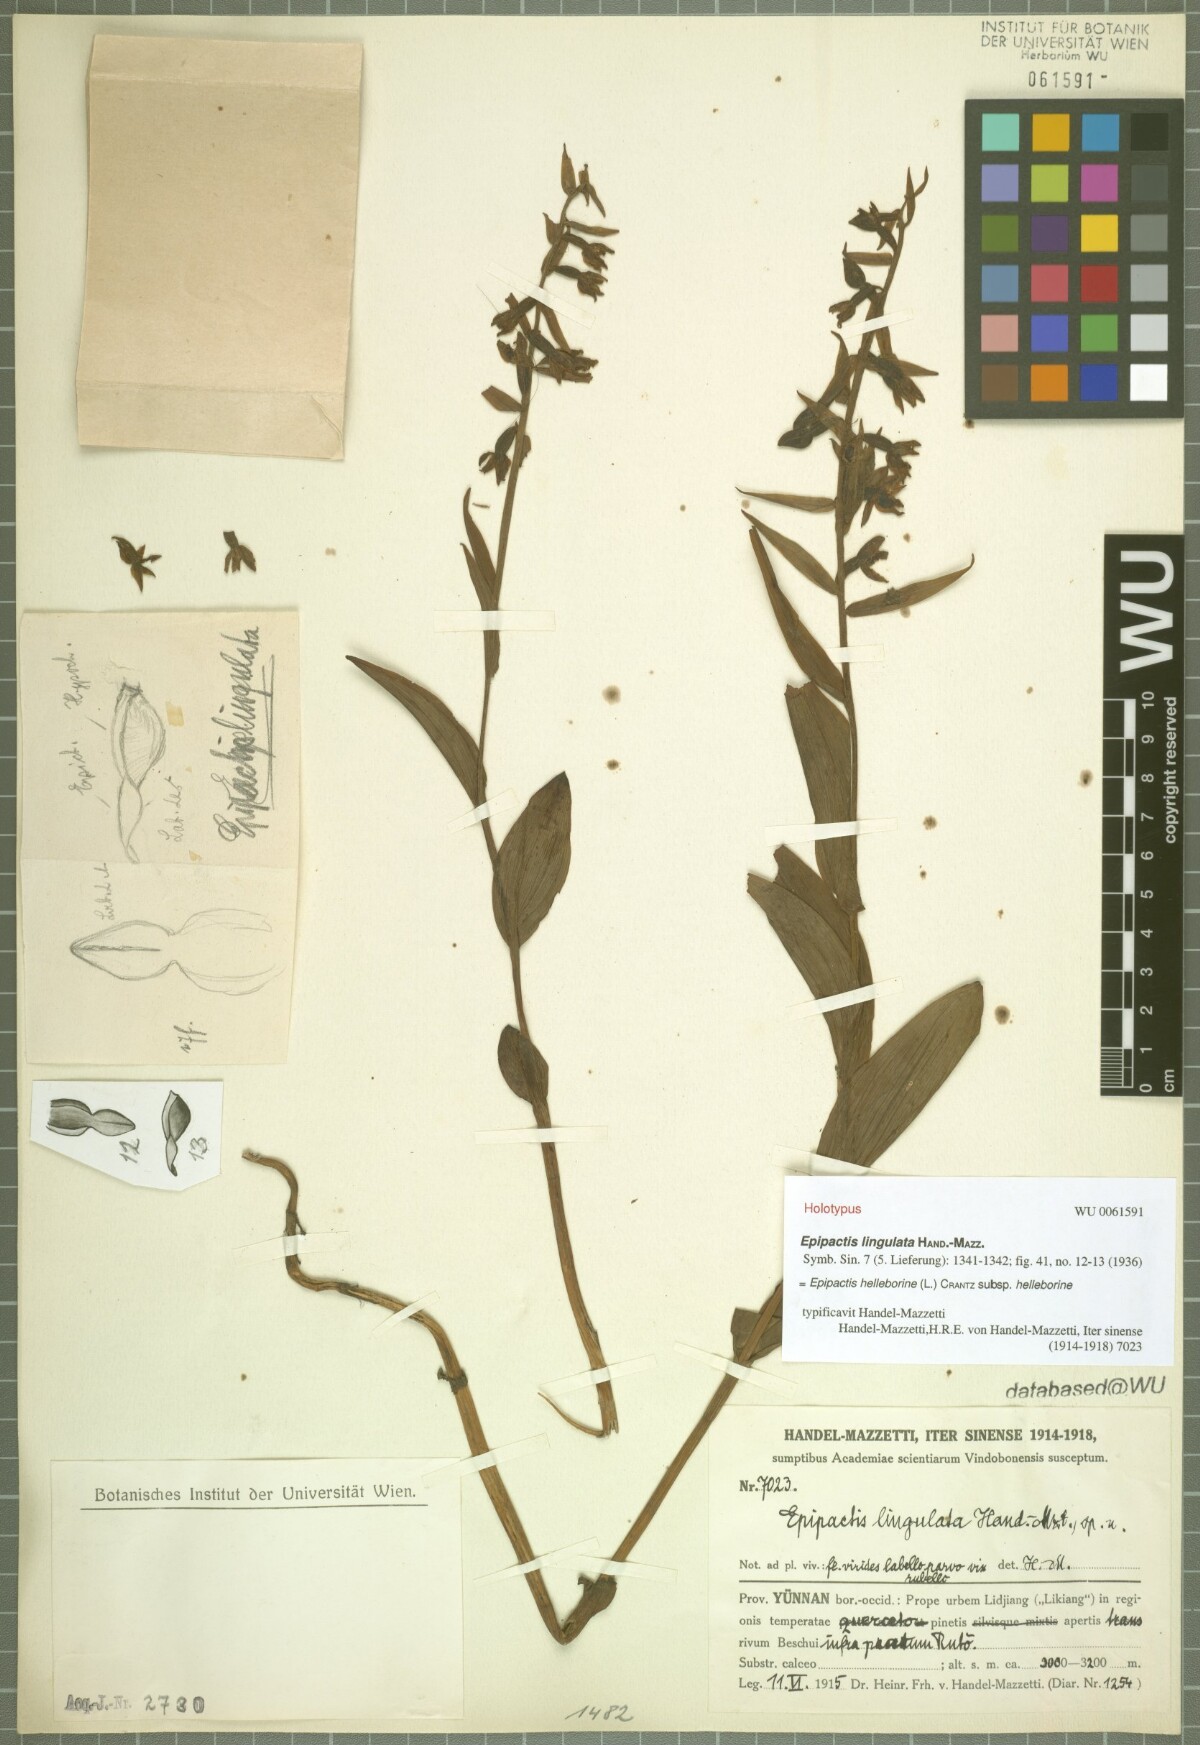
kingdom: Plantae
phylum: Tracheophyta
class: Liliopsida
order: Asparagales
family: Orchidaceae
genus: Epipactis
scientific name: Epipactis lingulata
